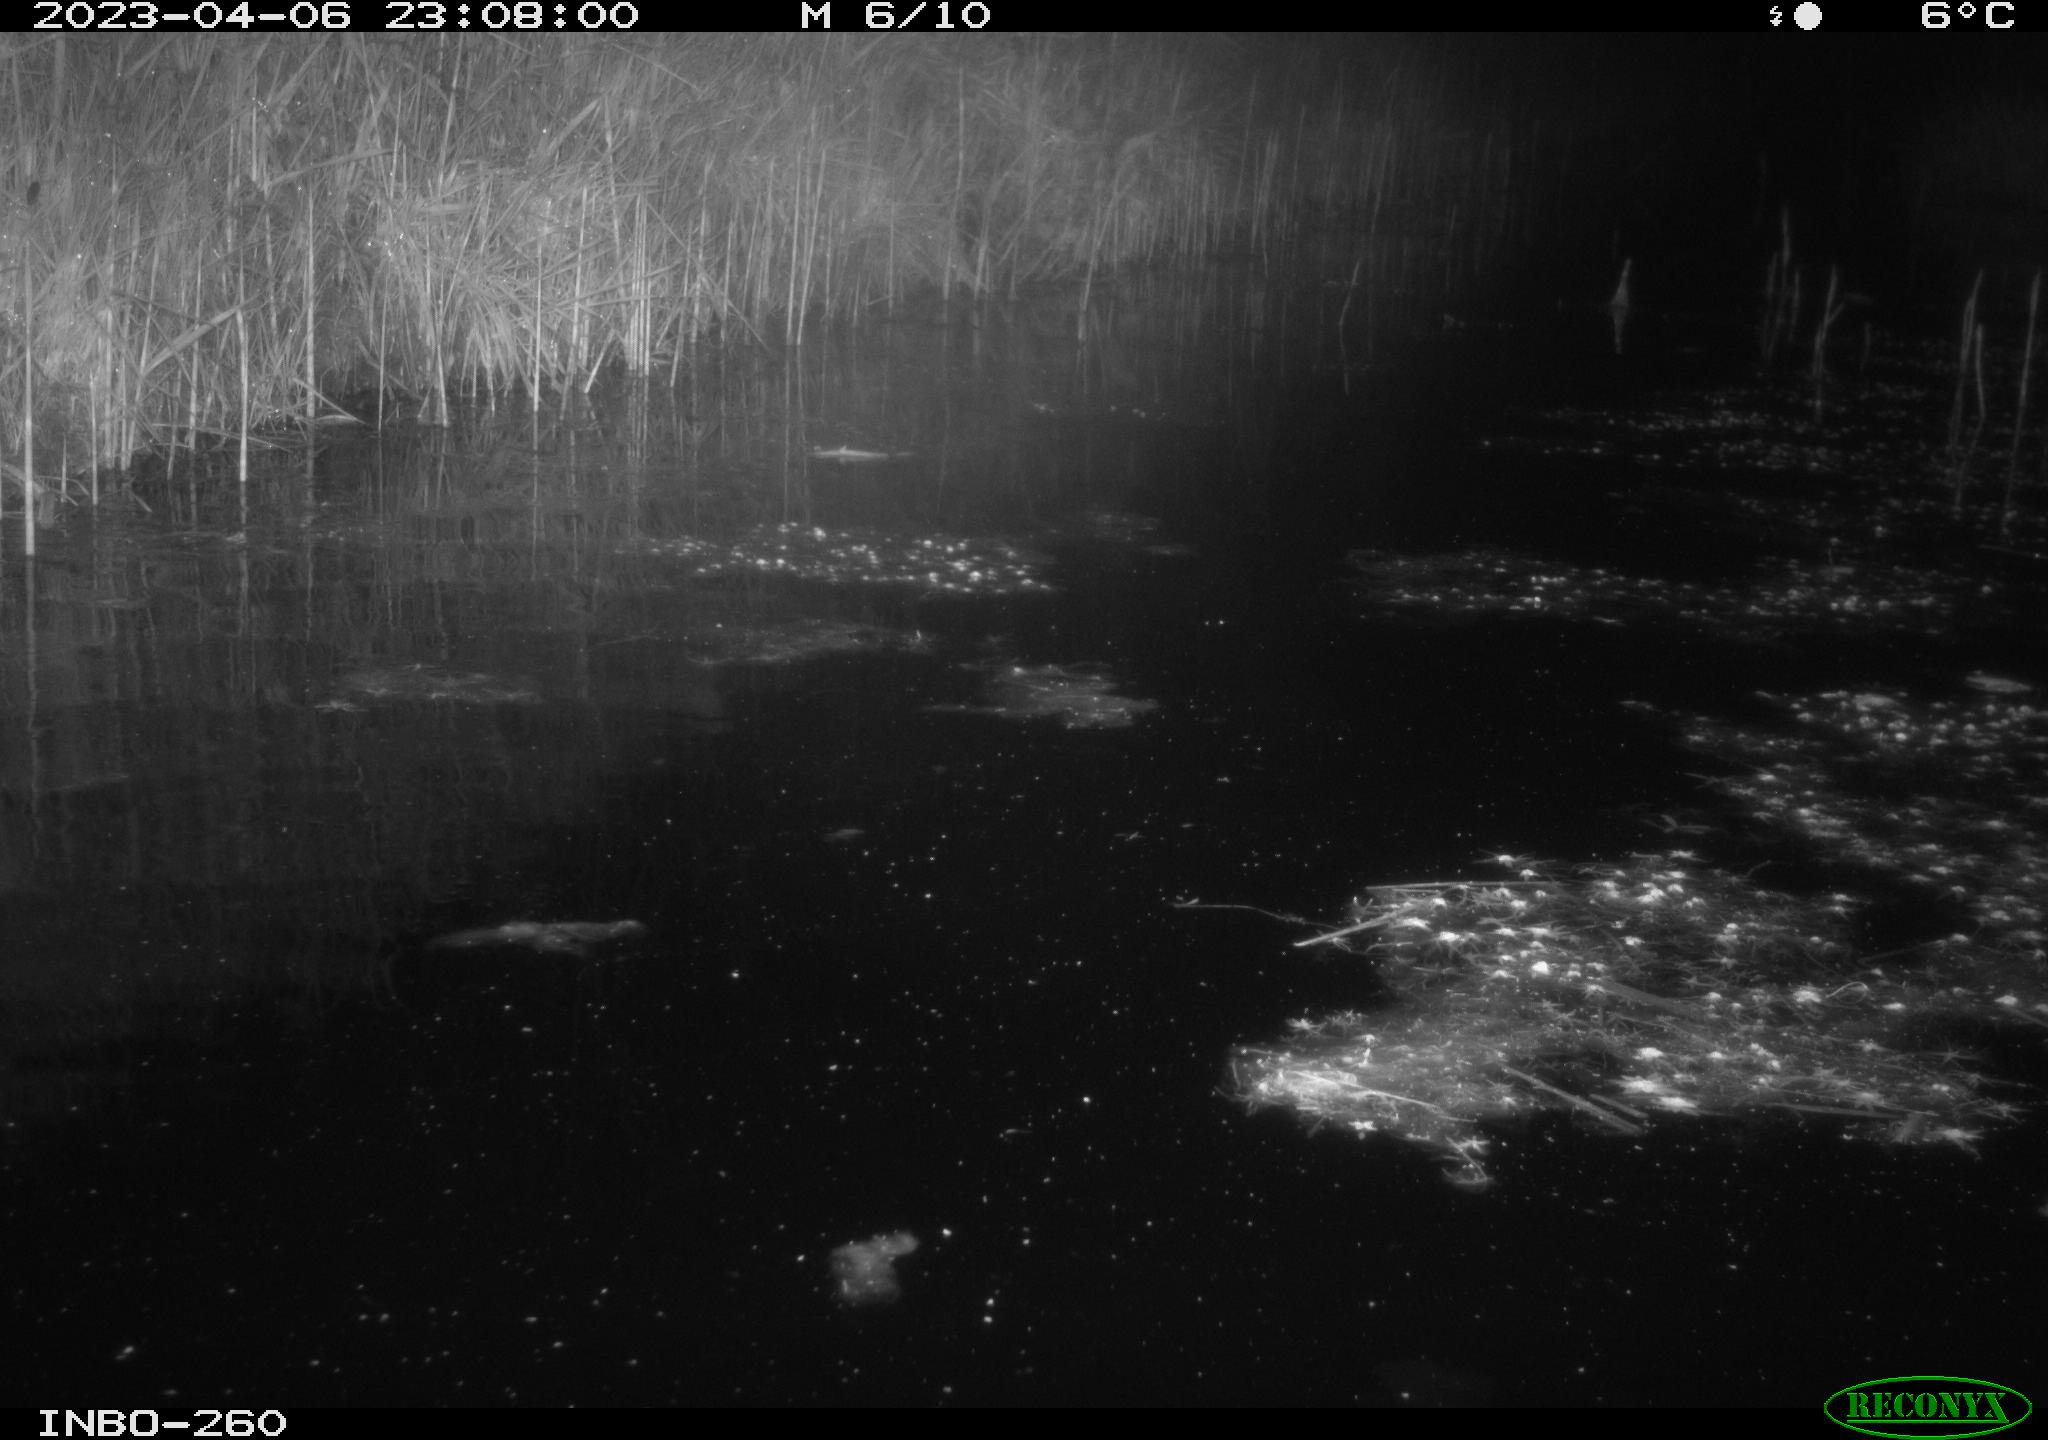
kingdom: Animalia
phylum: Chordata
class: Mammalia
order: Rodentia
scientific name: Rodentia
